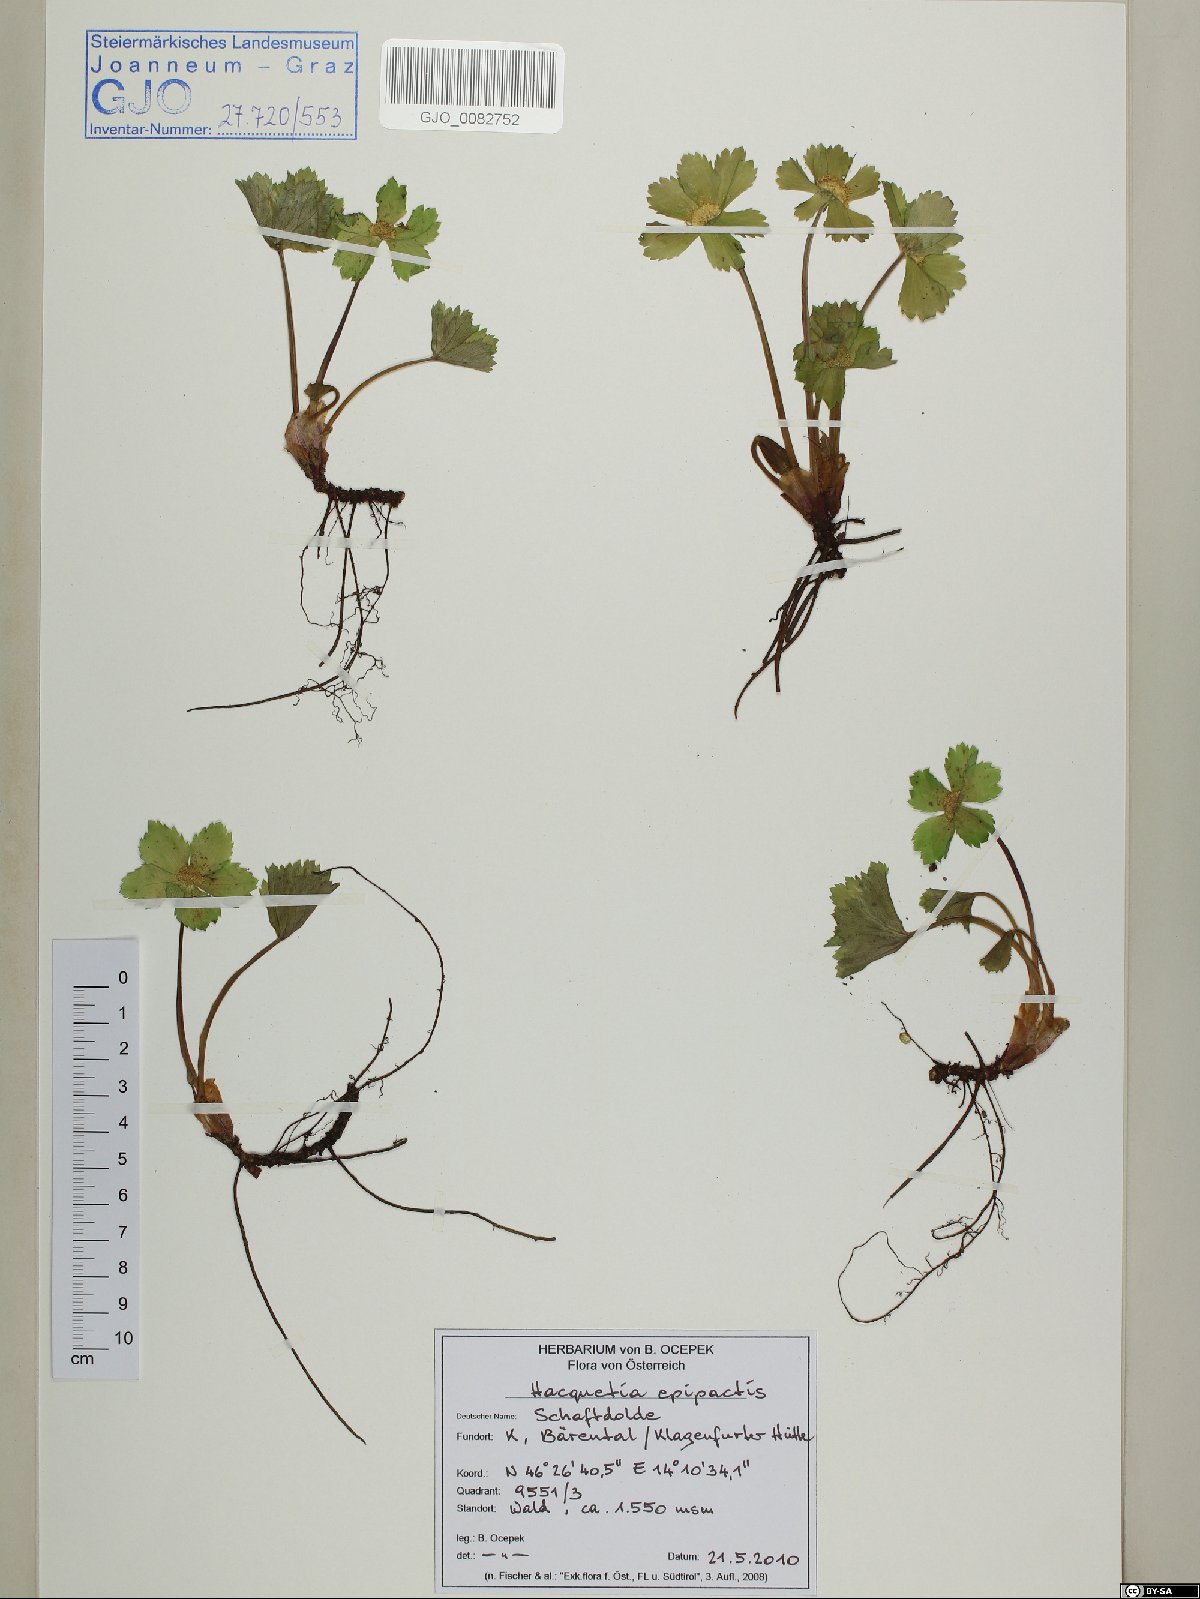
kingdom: Plantae
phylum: Tracheophyta
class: Magnoliopsida
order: Apiales
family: Apiaceae
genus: Sanicula
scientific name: Sanicula epipactis
